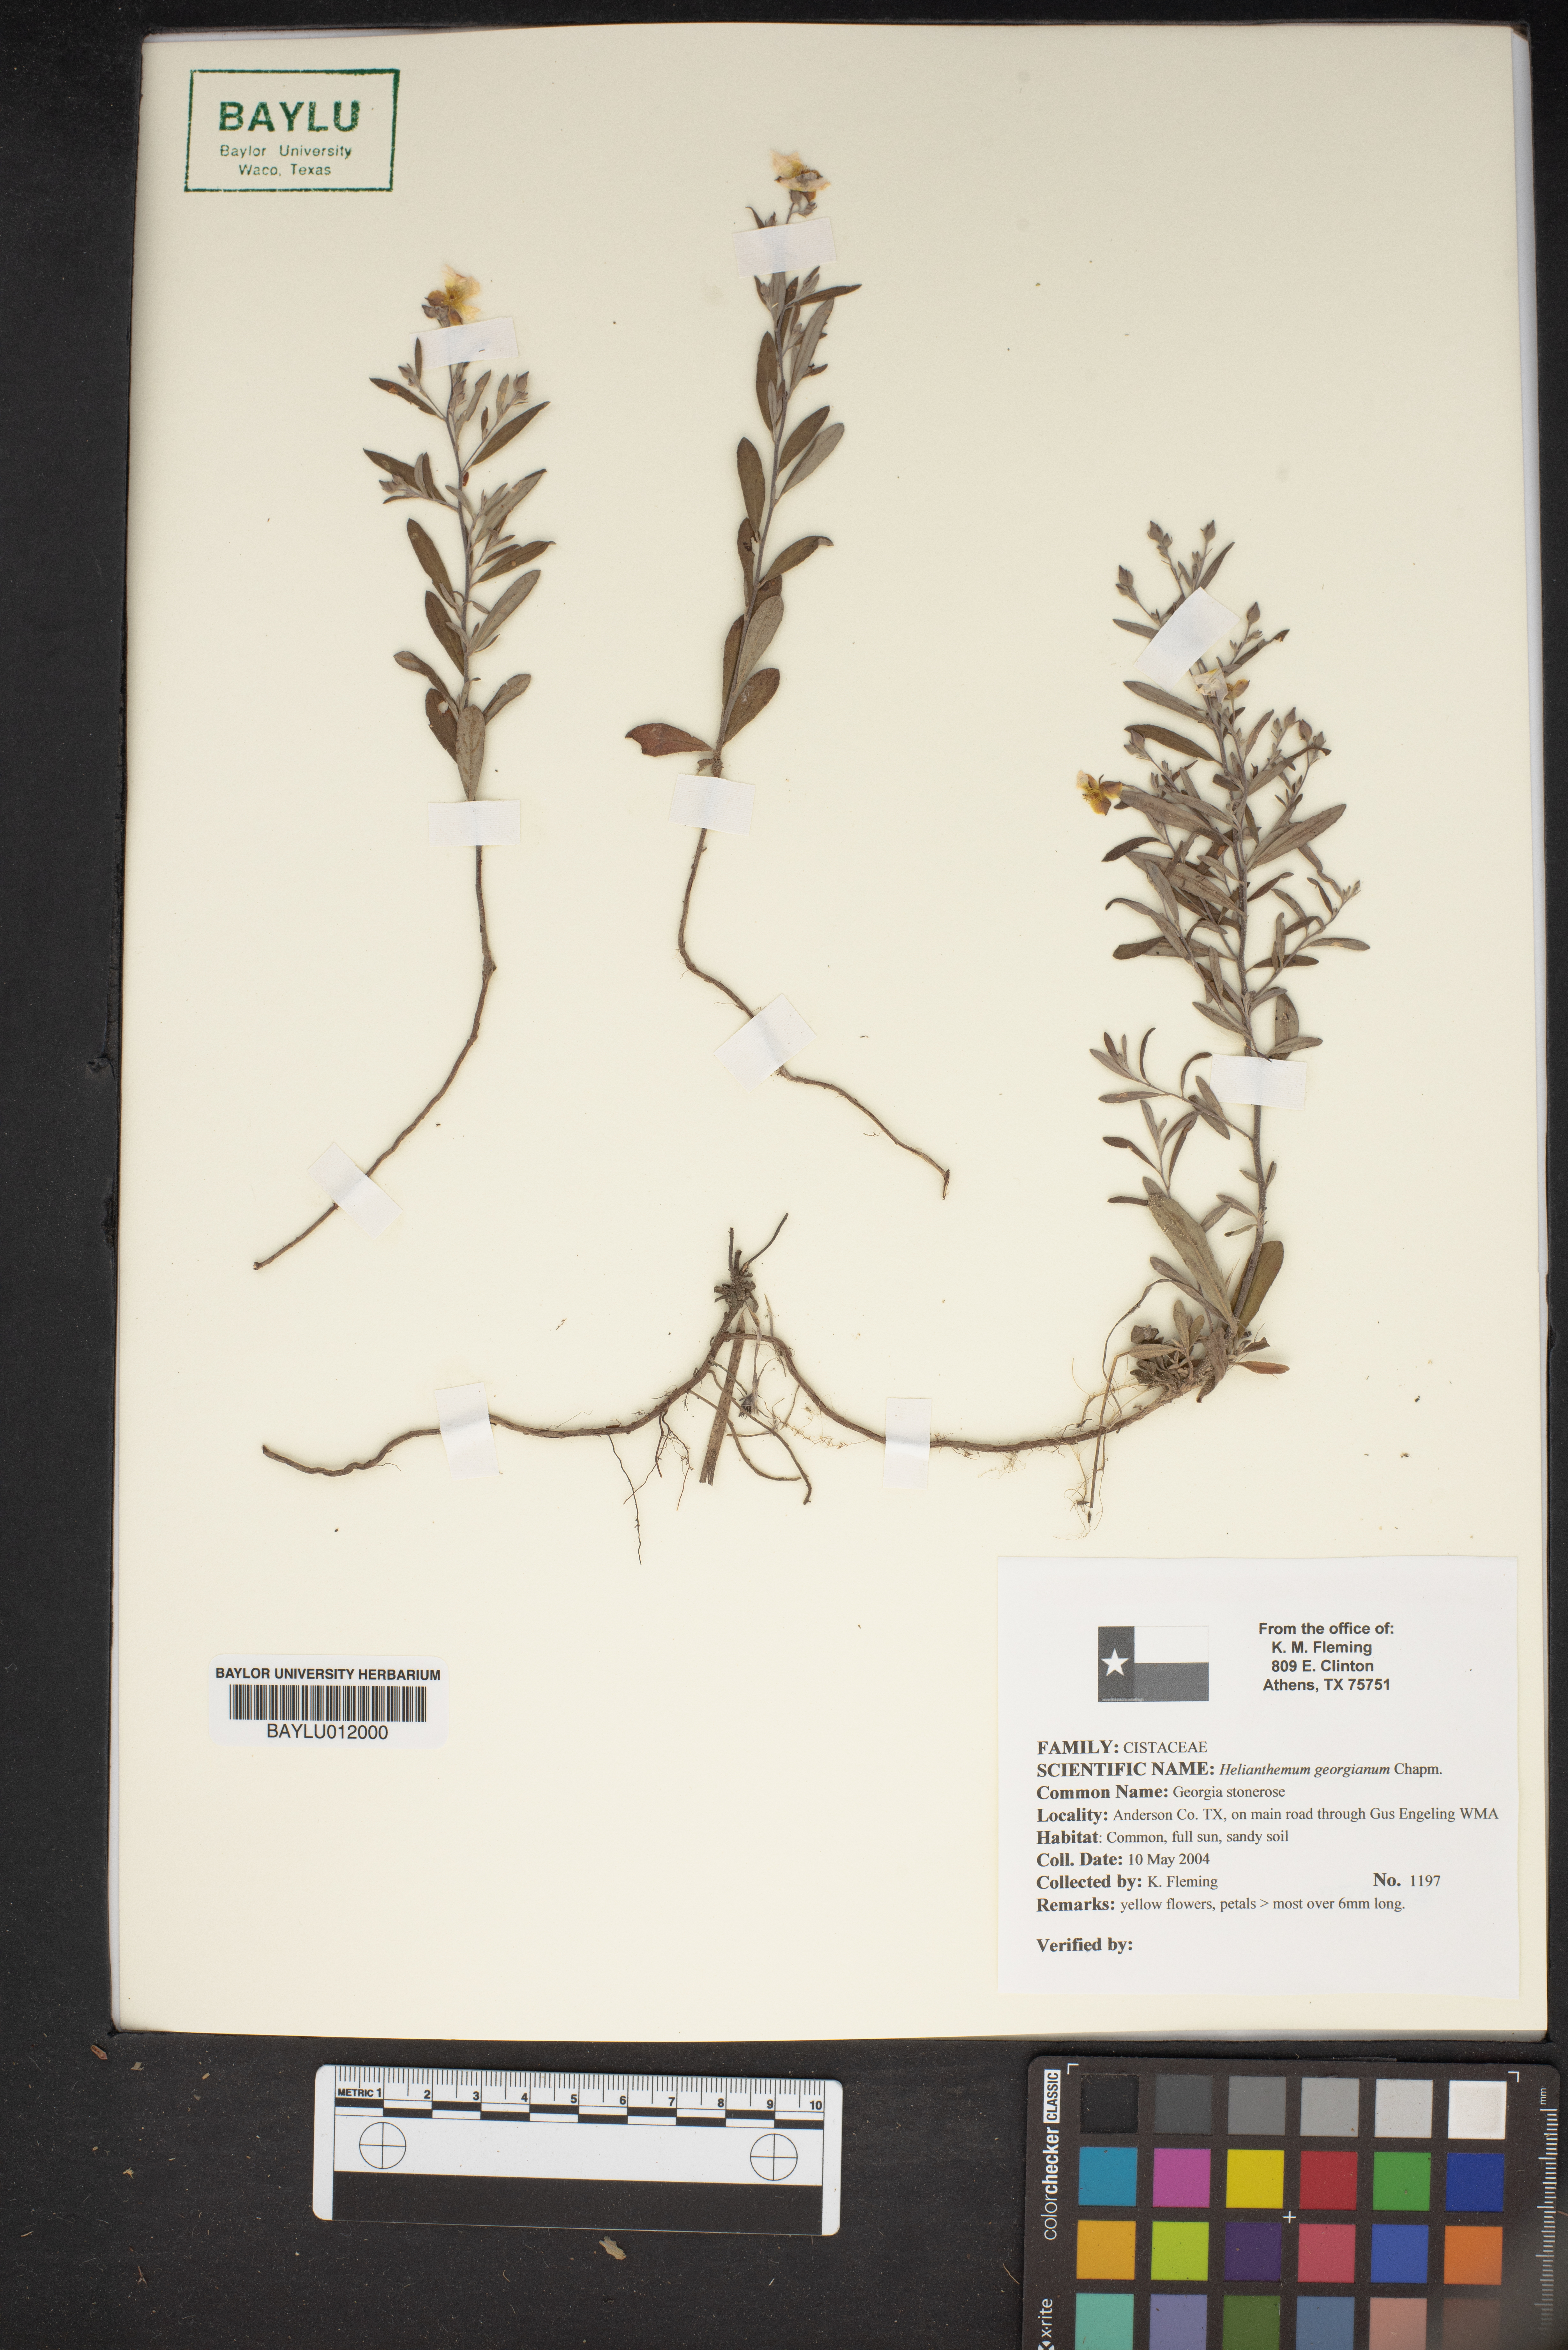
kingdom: Plantae
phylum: Tracheophyta
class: Magnoliopsida
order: Malvales
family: Cistaceae
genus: Crocanthemum
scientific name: Crocanthemum georgianum
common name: Georgia frostweed
